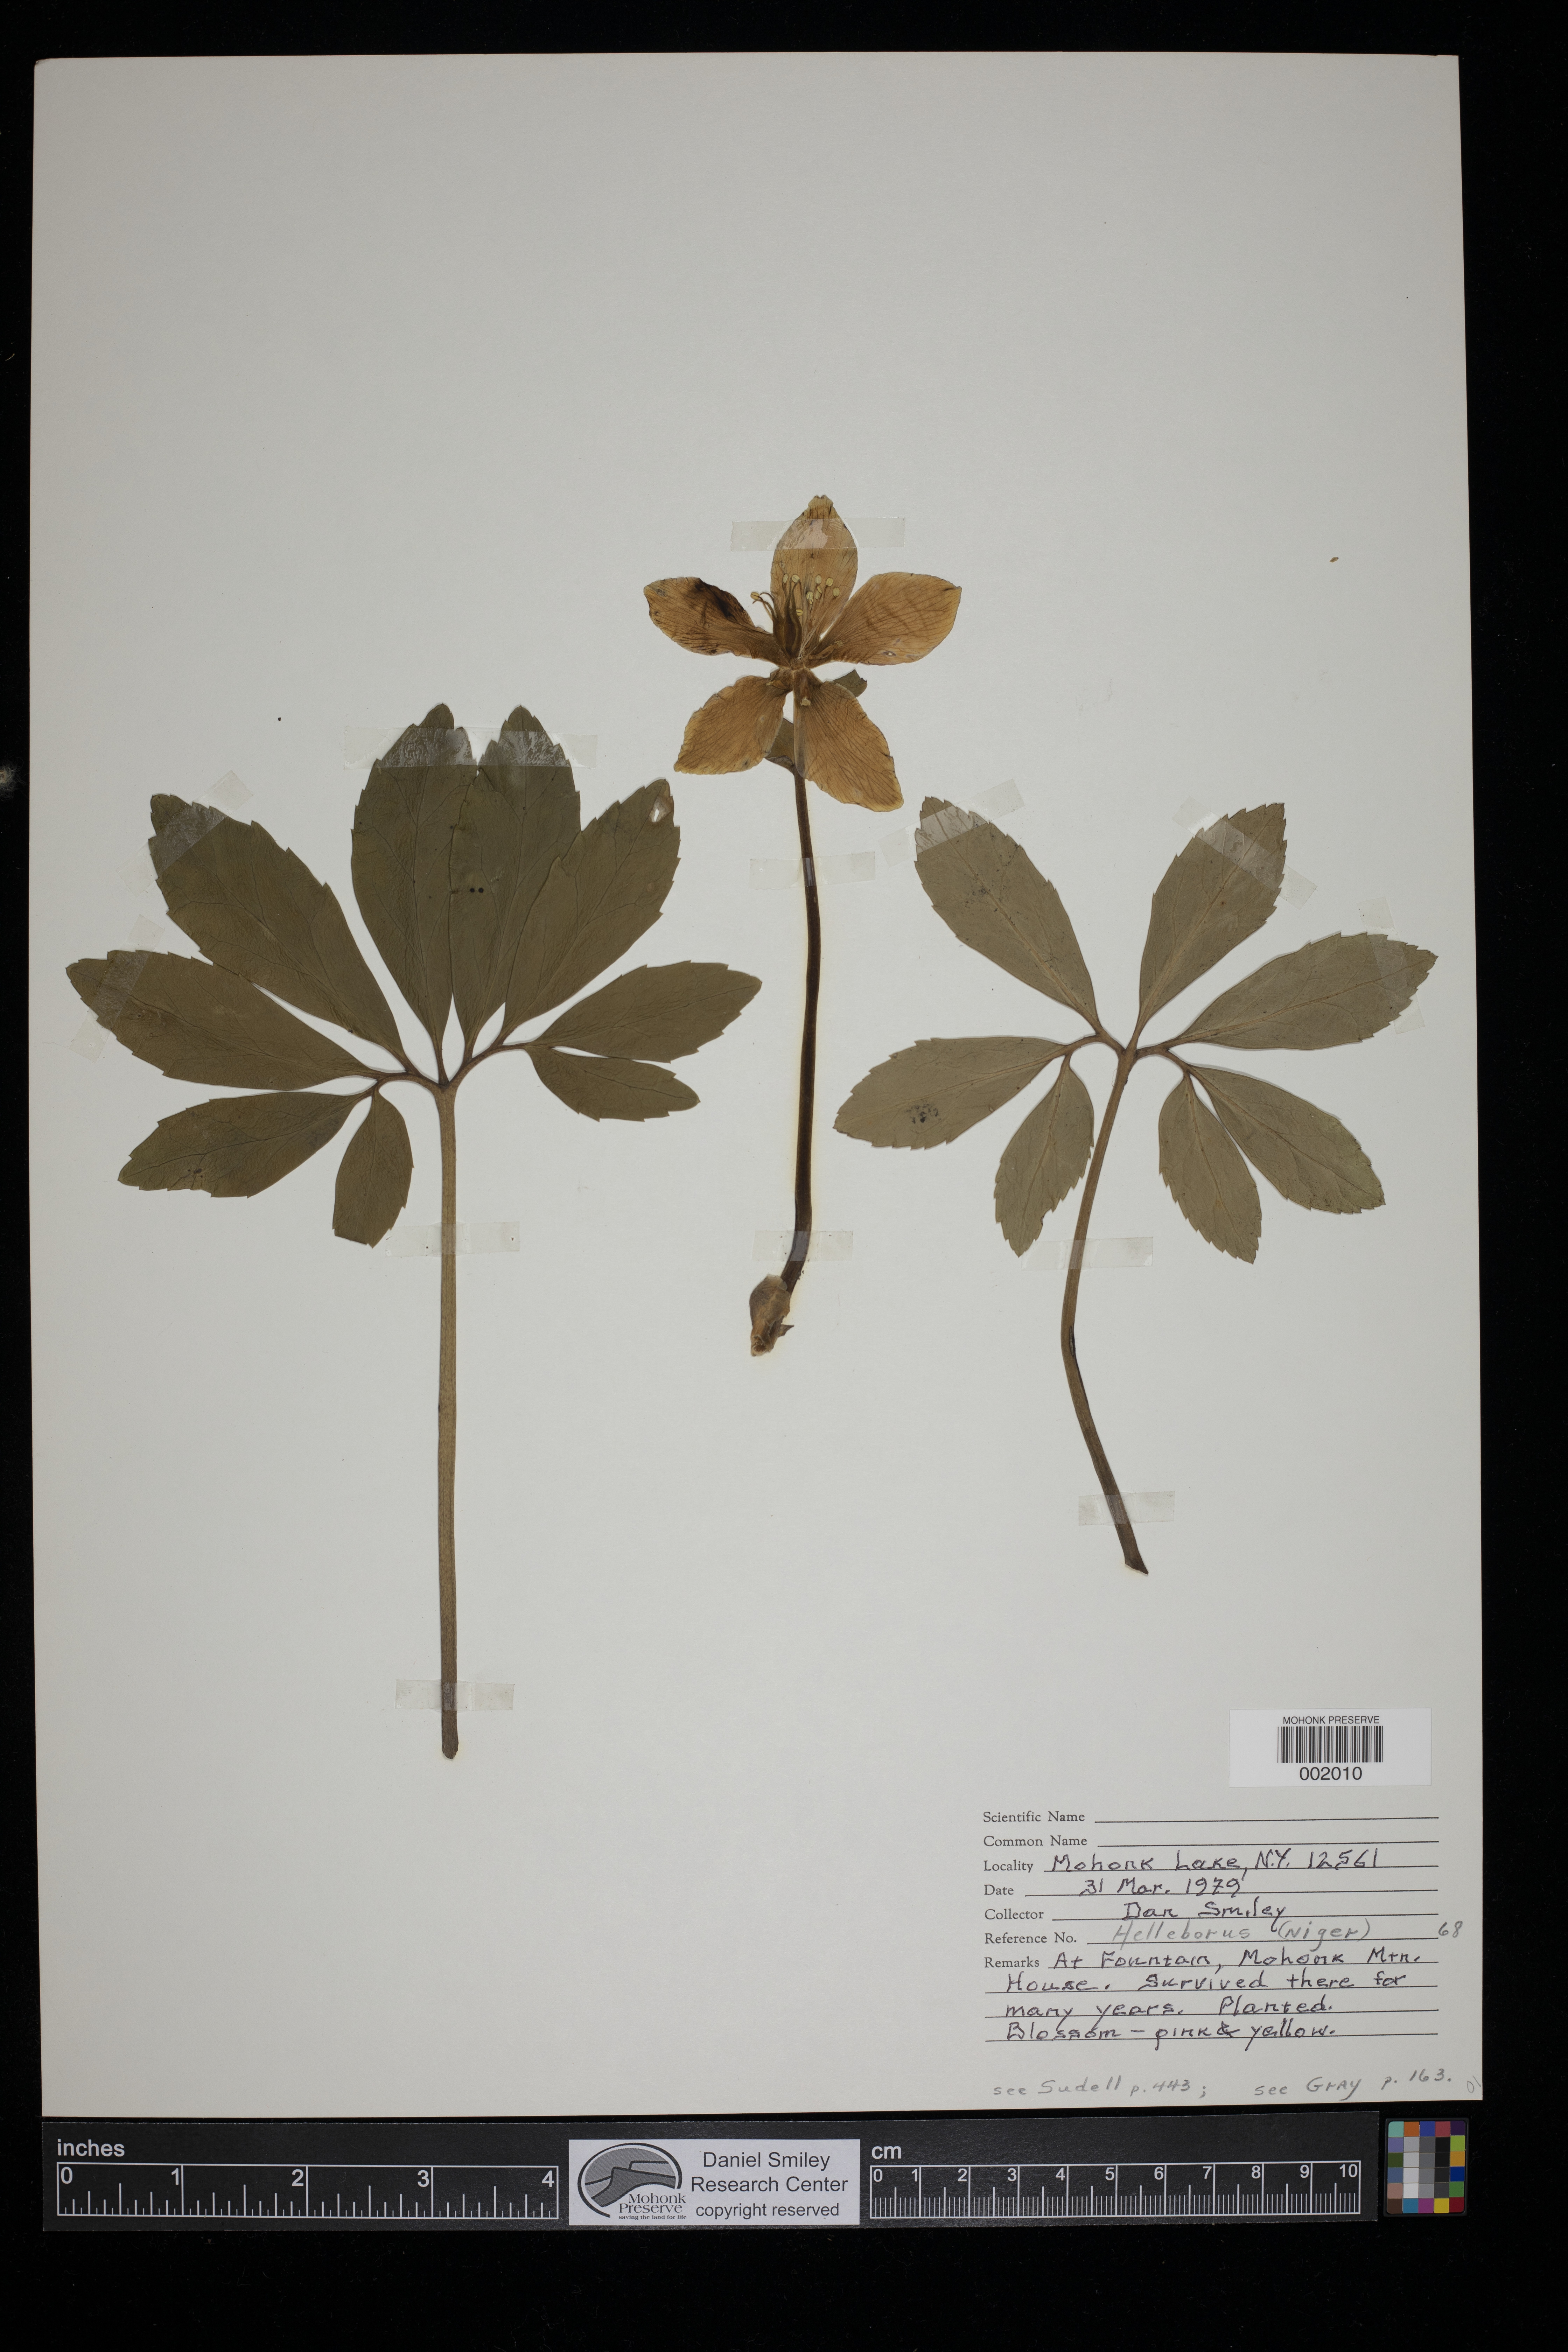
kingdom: Plantae
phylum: Tracheophyta
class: Magnoliopsida
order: Ranunculales
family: Ranunculaceae
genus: Helleborus
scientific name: Helleborus niger
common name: Black hellebore
